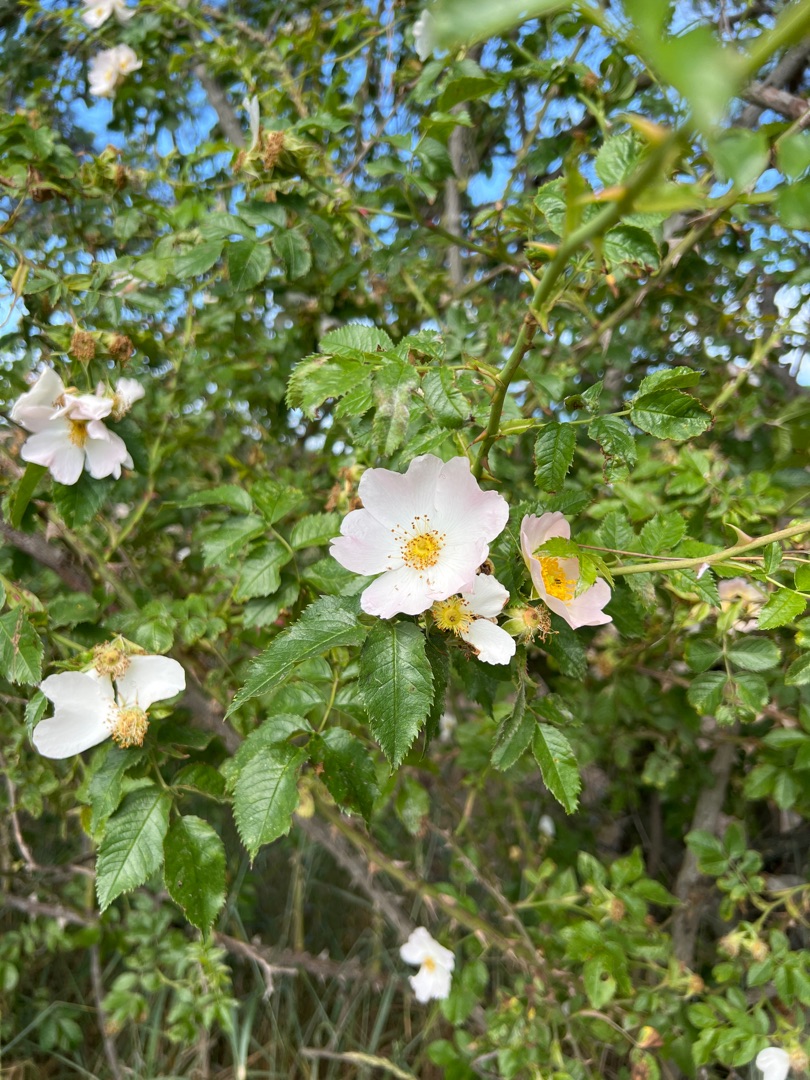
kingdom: Plantae
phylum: Tracheophyta
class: Magnoliopsida
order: Rosales
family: Rosaceae
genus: Rosa
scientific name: Rosa canina
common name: Glat hunde-rose
